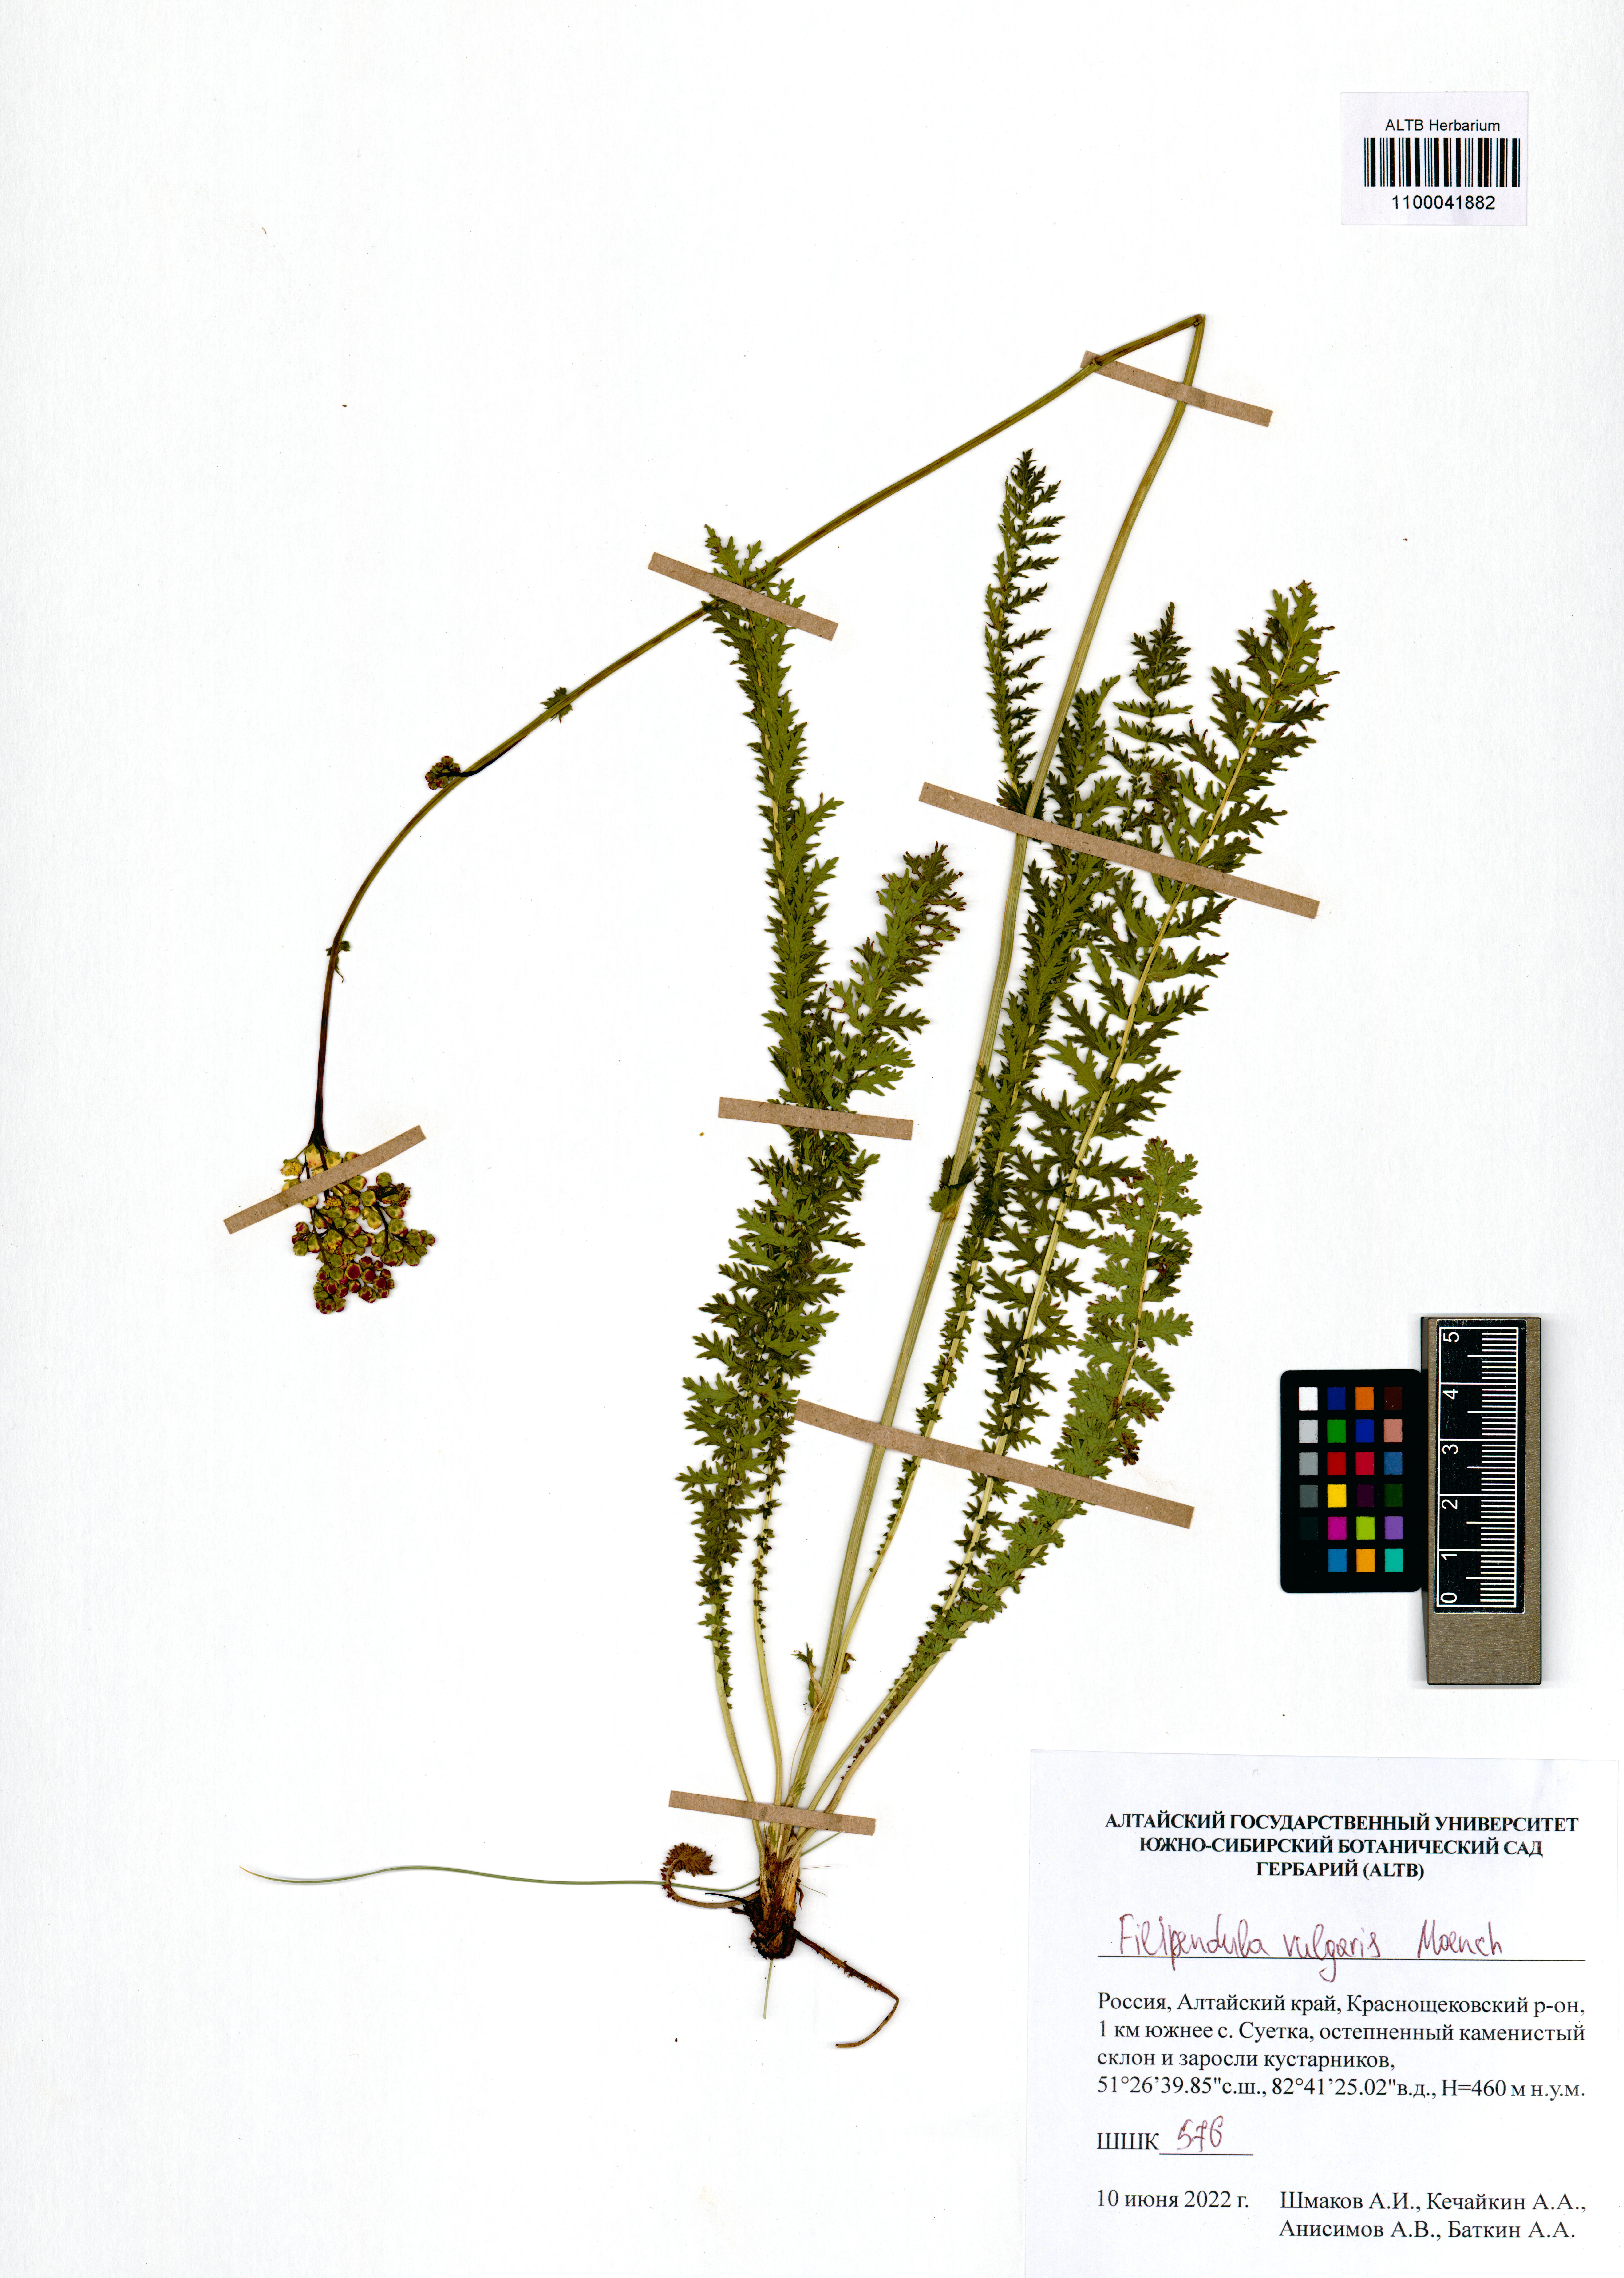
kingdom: Plantae
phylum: Tracheophyta
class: Magnoliopsida
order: Rosales
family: Rosaceae
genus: Filipendula
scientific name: Filipendula vulgaris
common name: Dropwort
